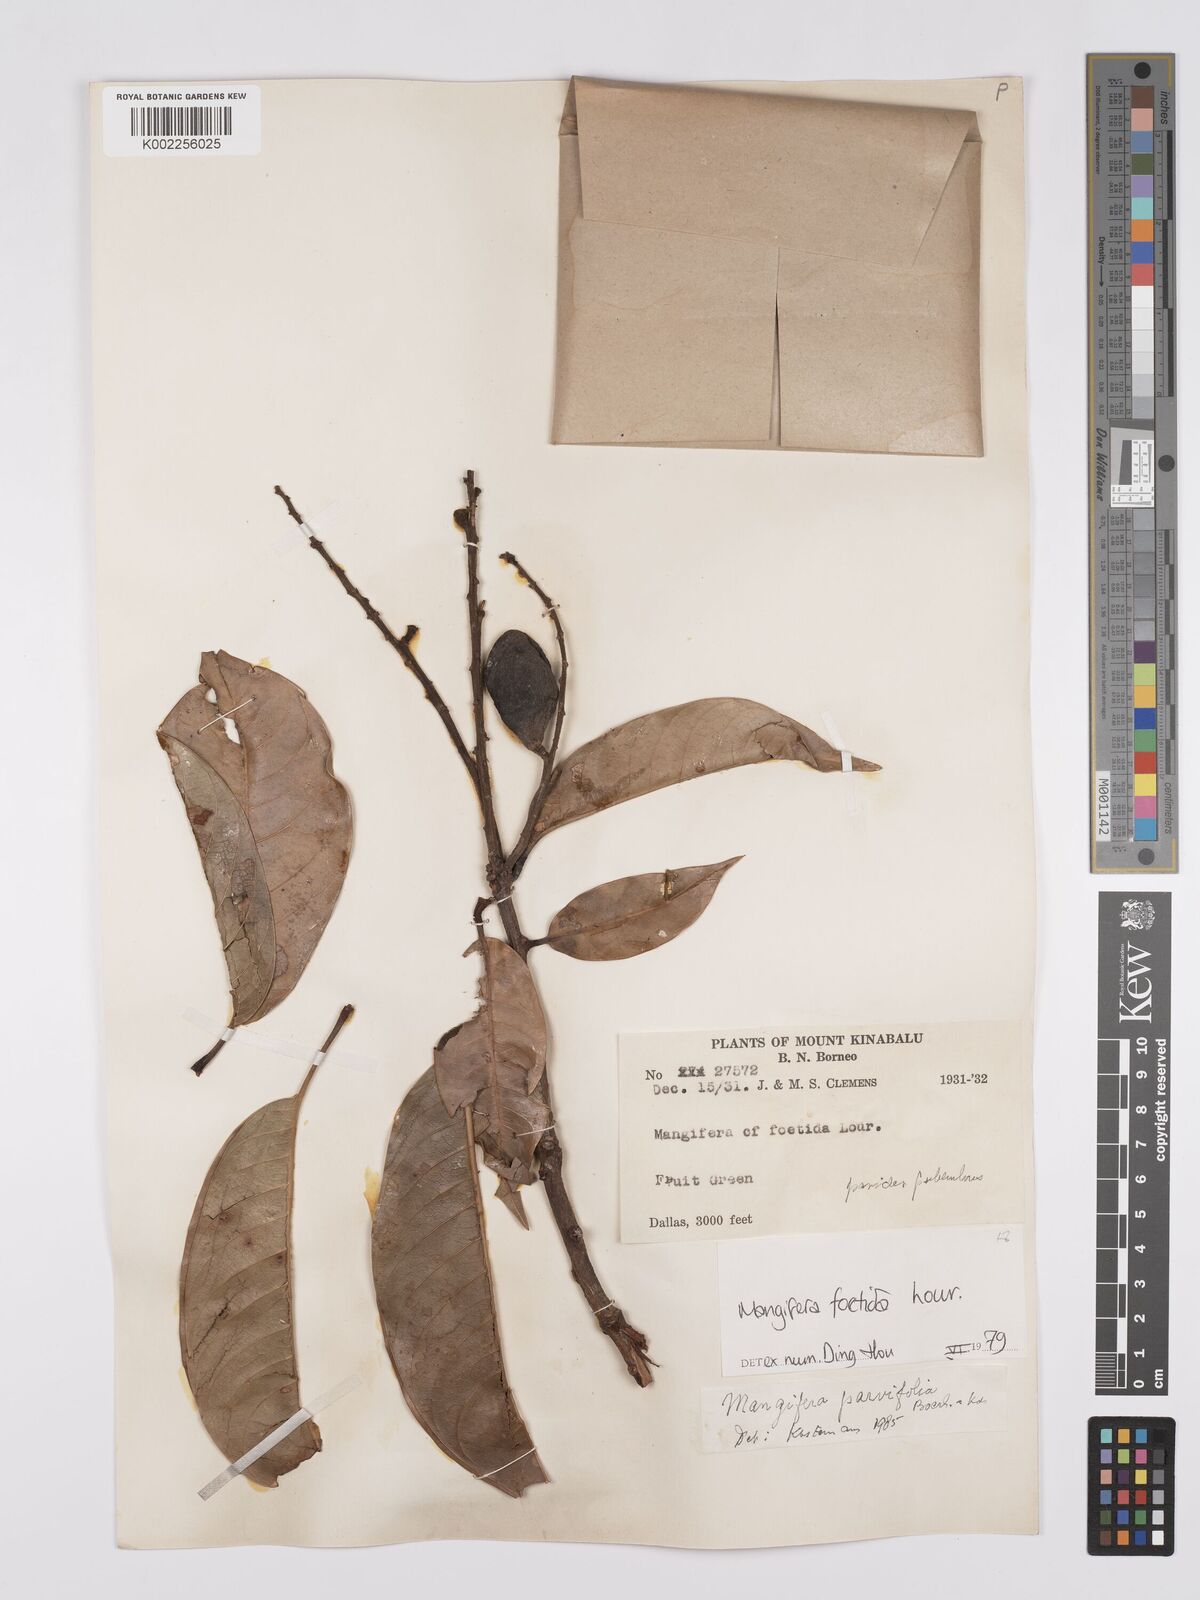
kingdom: Plantae
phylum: Tracheophyta
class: Magnoliopsida
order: Sapindales
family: Anacardiaceae
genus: Mangifera
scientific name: Mangifera
